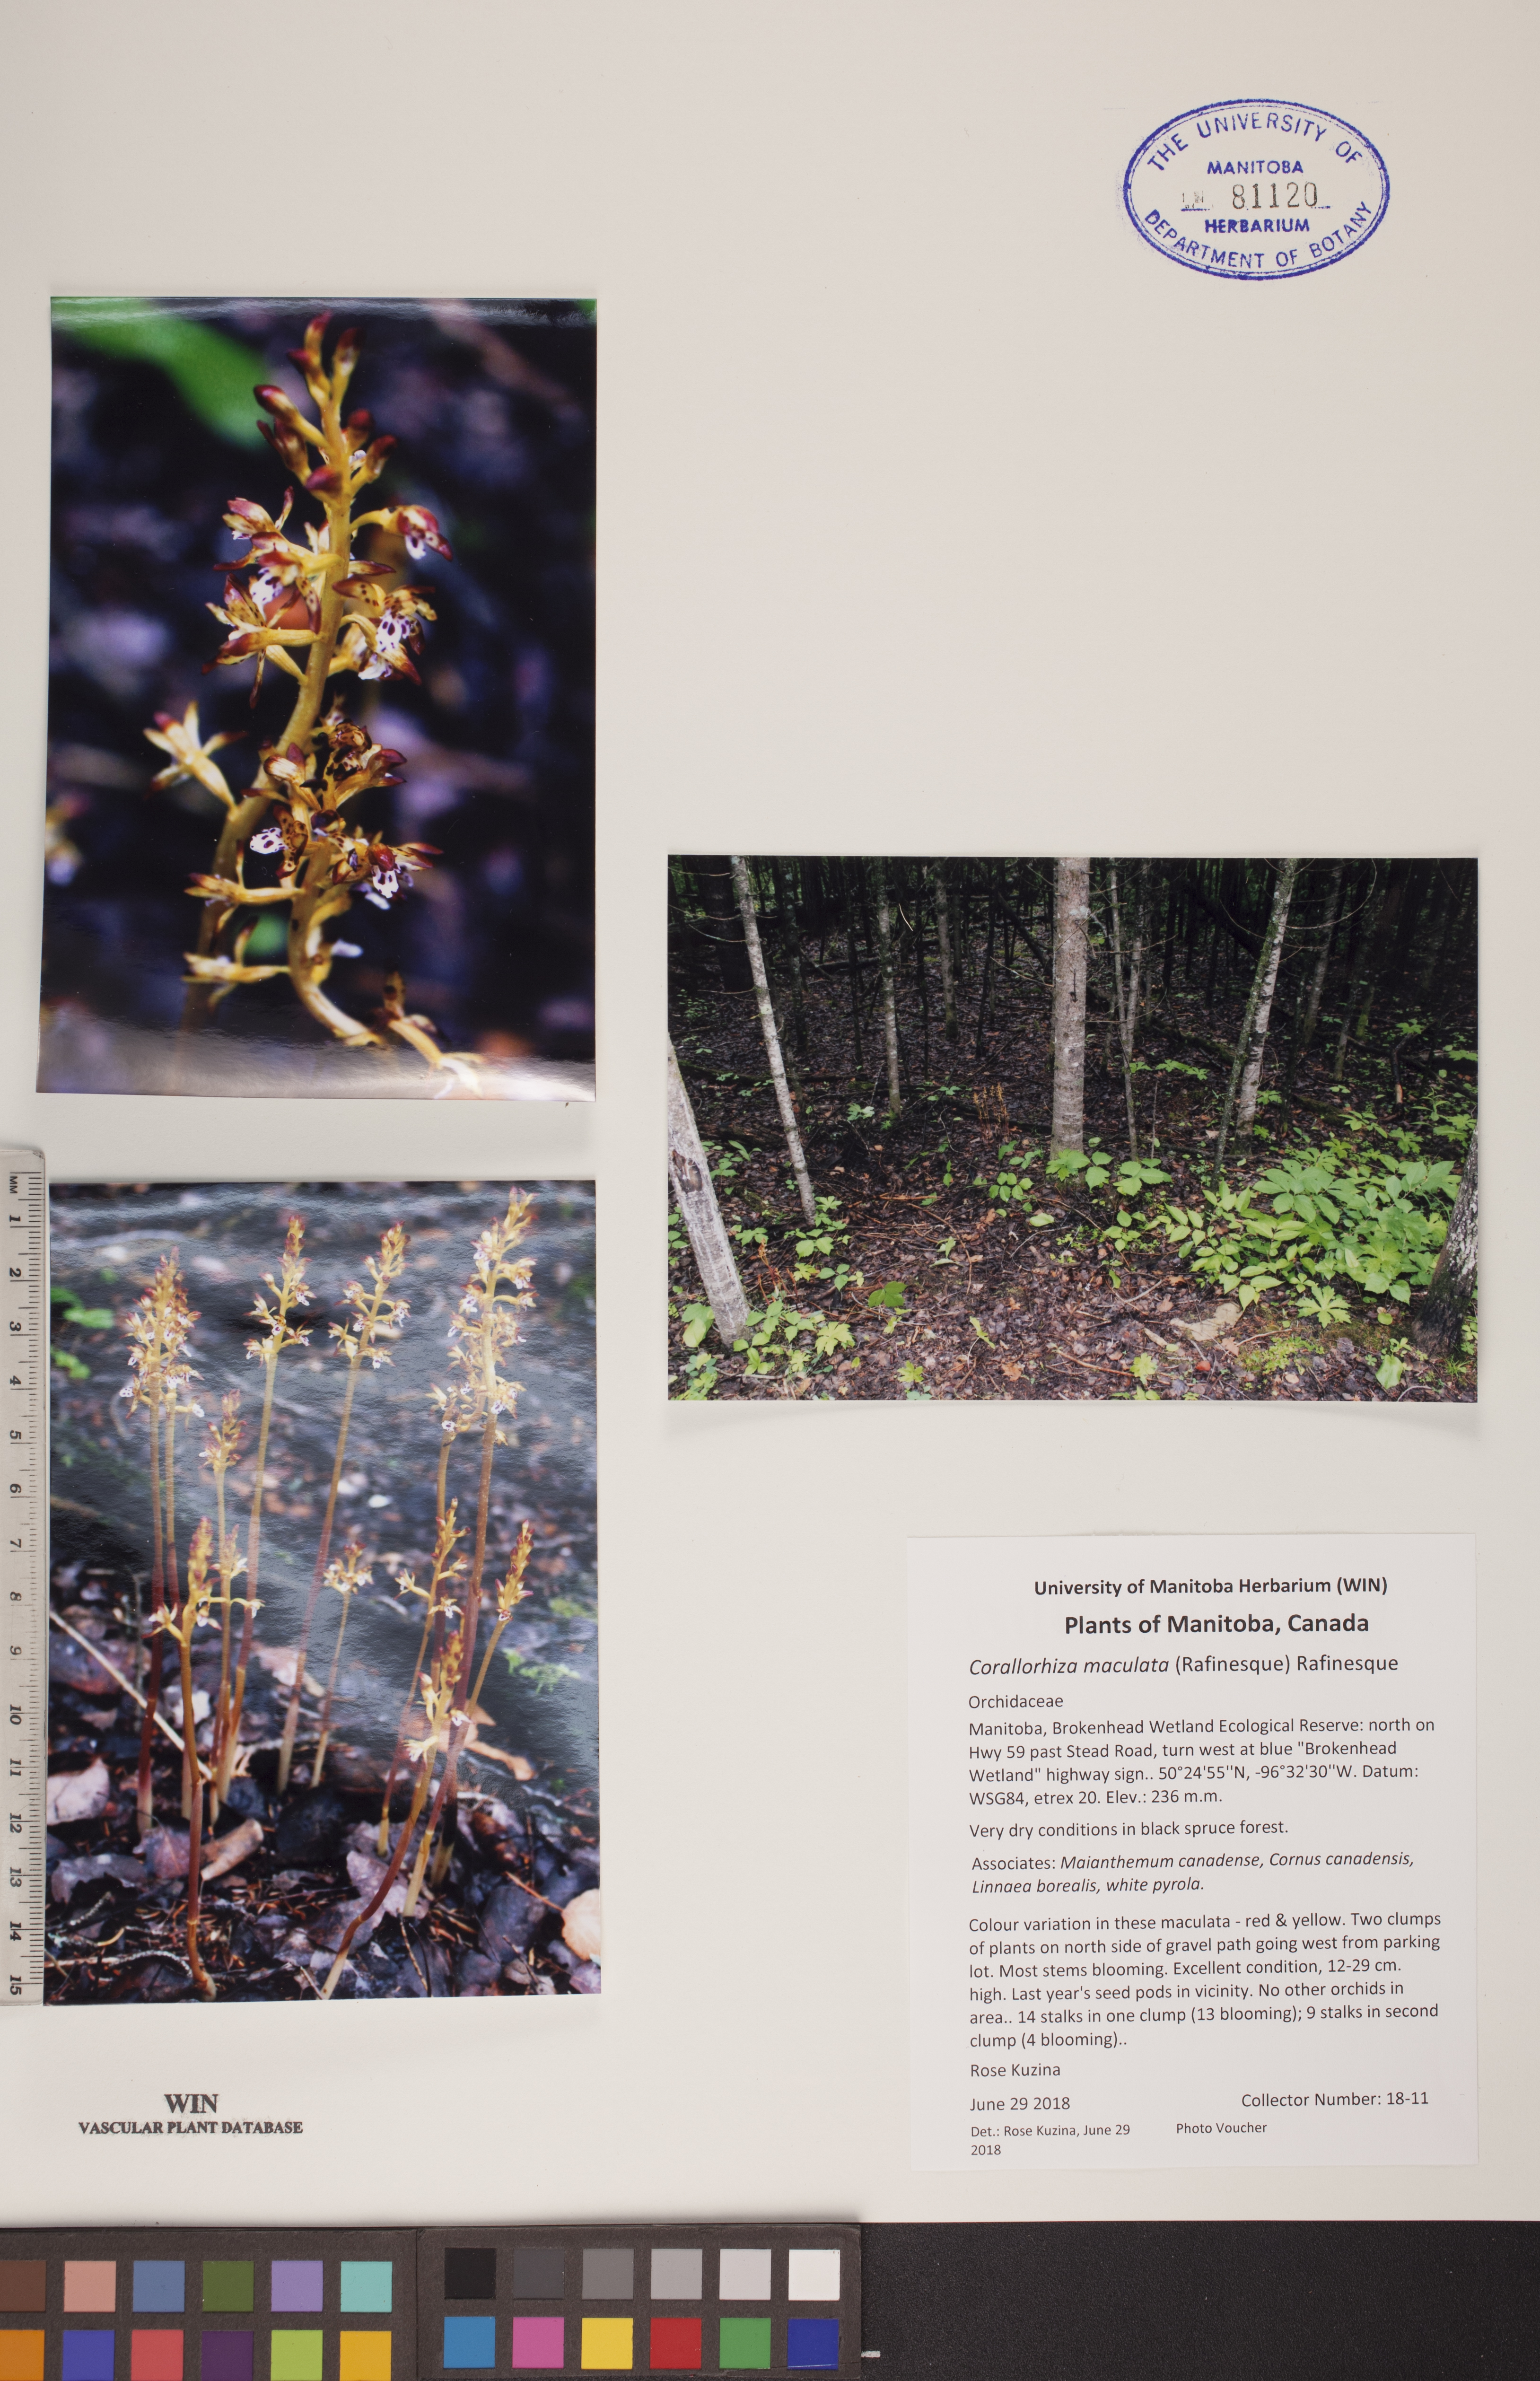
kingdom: Plantae
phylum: Tracheophyta
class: Liliopsida
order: Asparagales
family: Orchidaceae
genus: Corallorhiza
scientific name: Corallorhiza maculata
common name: Spotted coralroot
